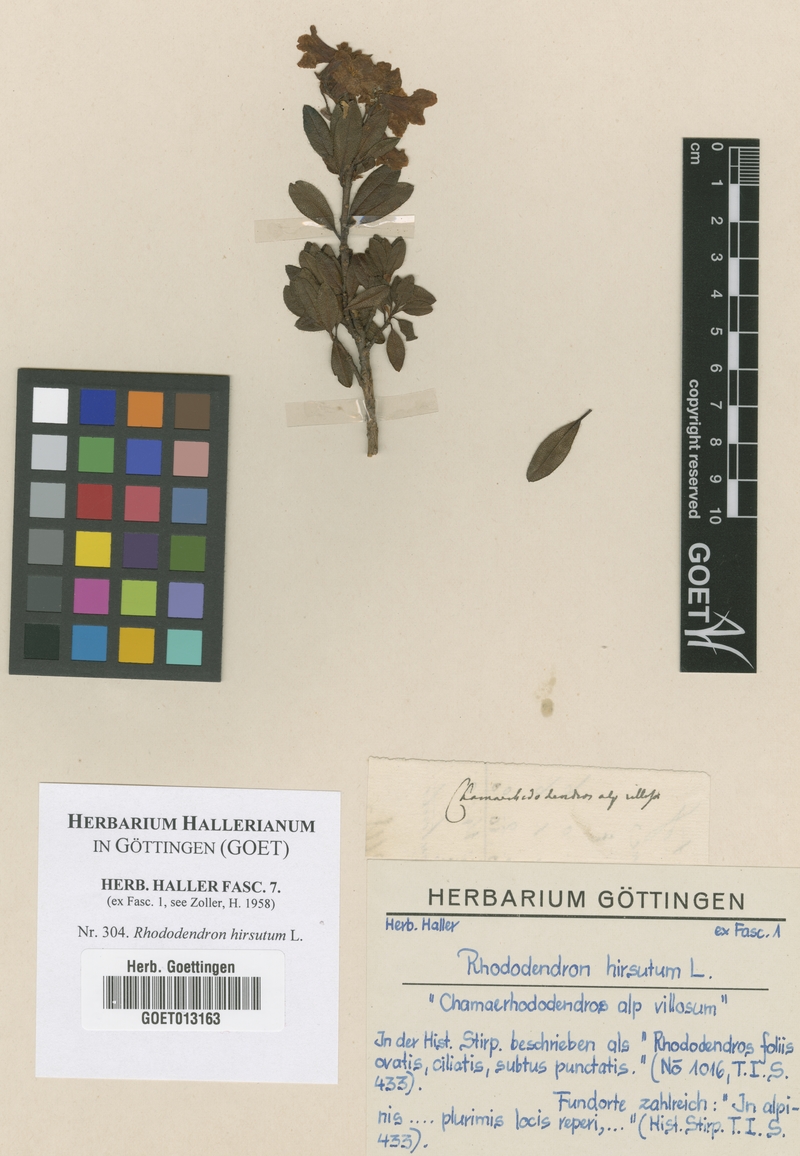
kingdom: Plantae
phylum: Tracheophyta
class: Magnoliopsida
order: Ericales
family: Ericaceae
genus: Rhododendron
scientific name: Rhododendron hirsutum
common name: Hairy alpenrose
